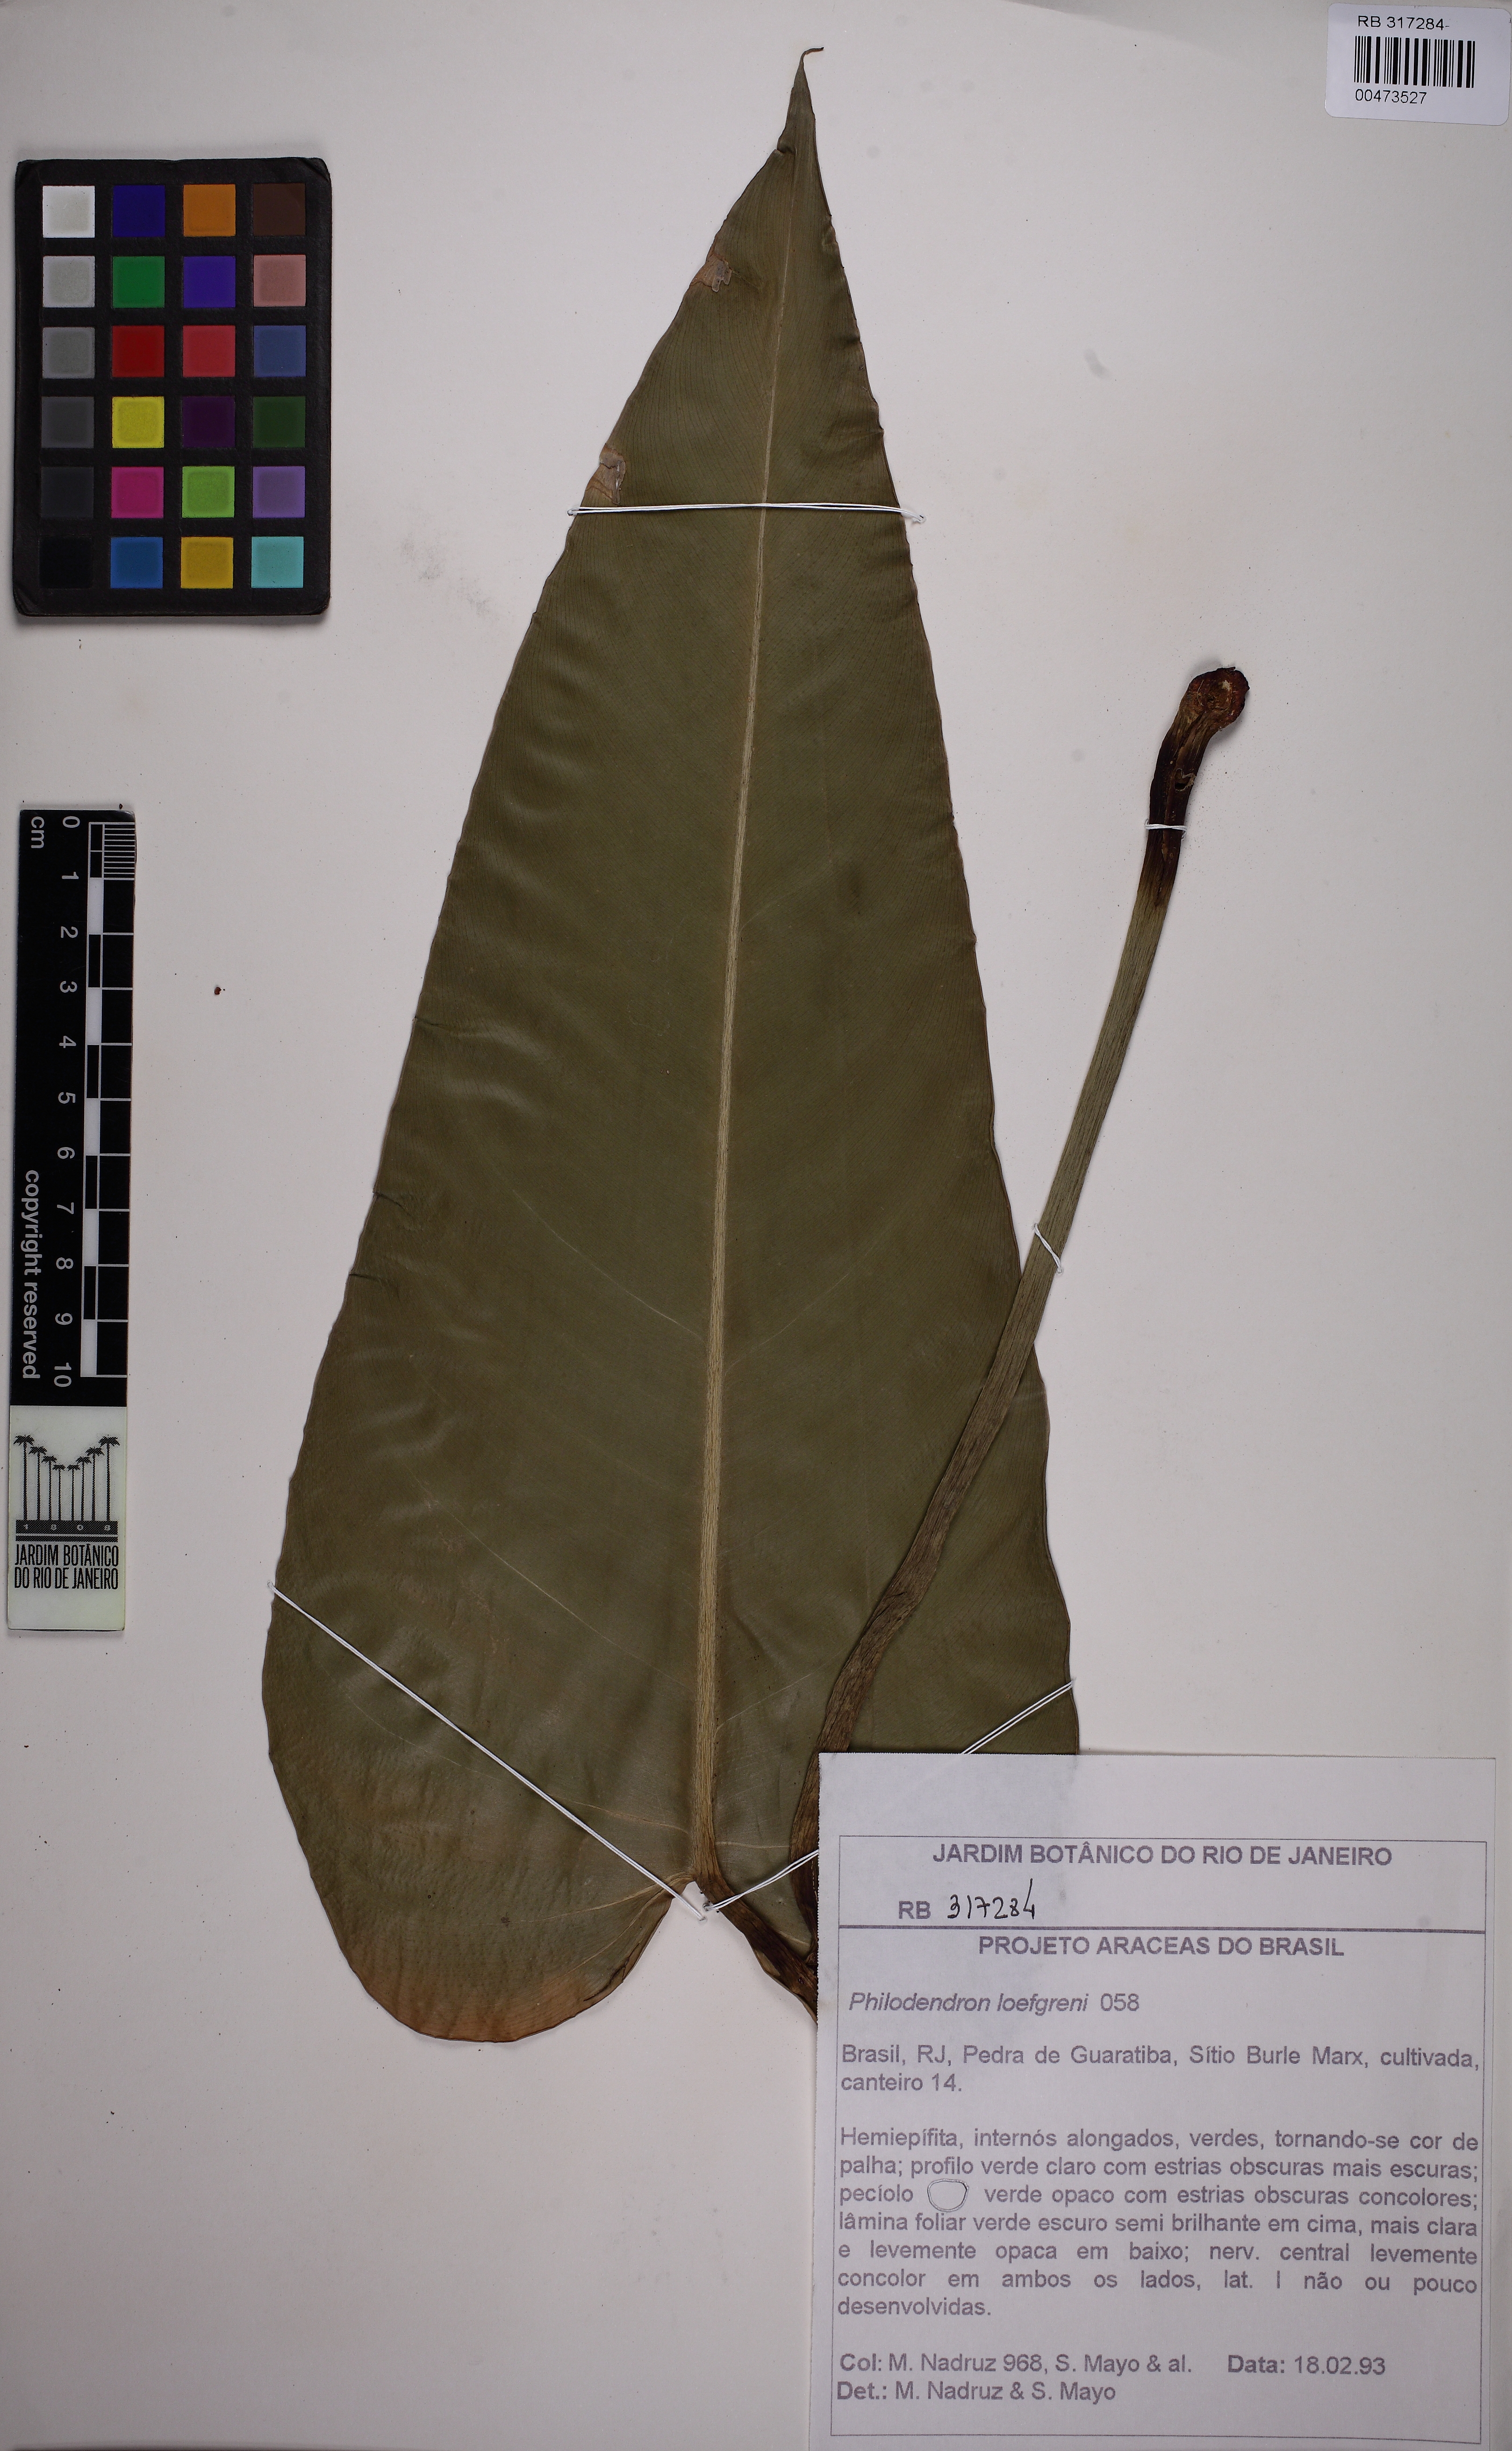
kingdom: Plantae
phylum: Tracheophyta
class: Liliopsida
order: Alismatales
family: Araceae
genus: Philodendron
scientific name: Philodendron loefgrenii
